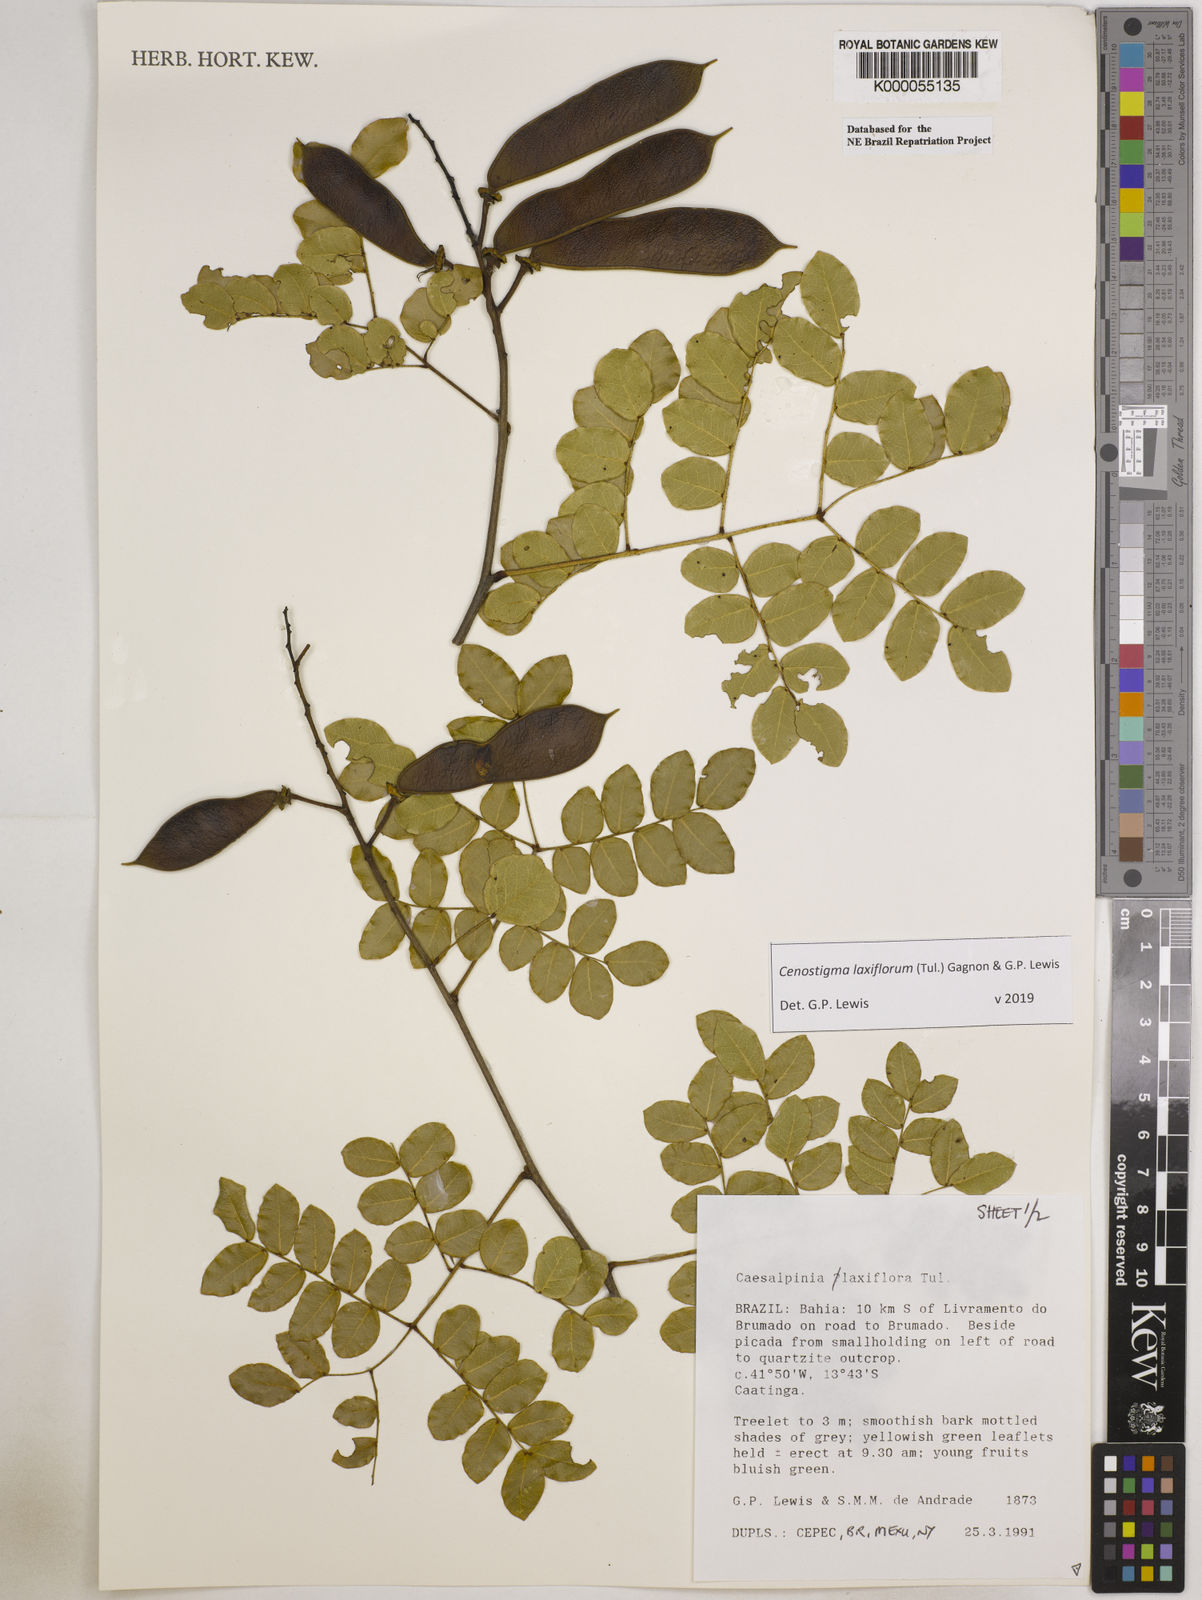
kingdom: Plantae
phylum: Tracheophyta
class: Magnoliopsida
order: Fabales
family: Fabaceae
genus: Cenostigma
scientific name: Cenostigma laxiflorum
